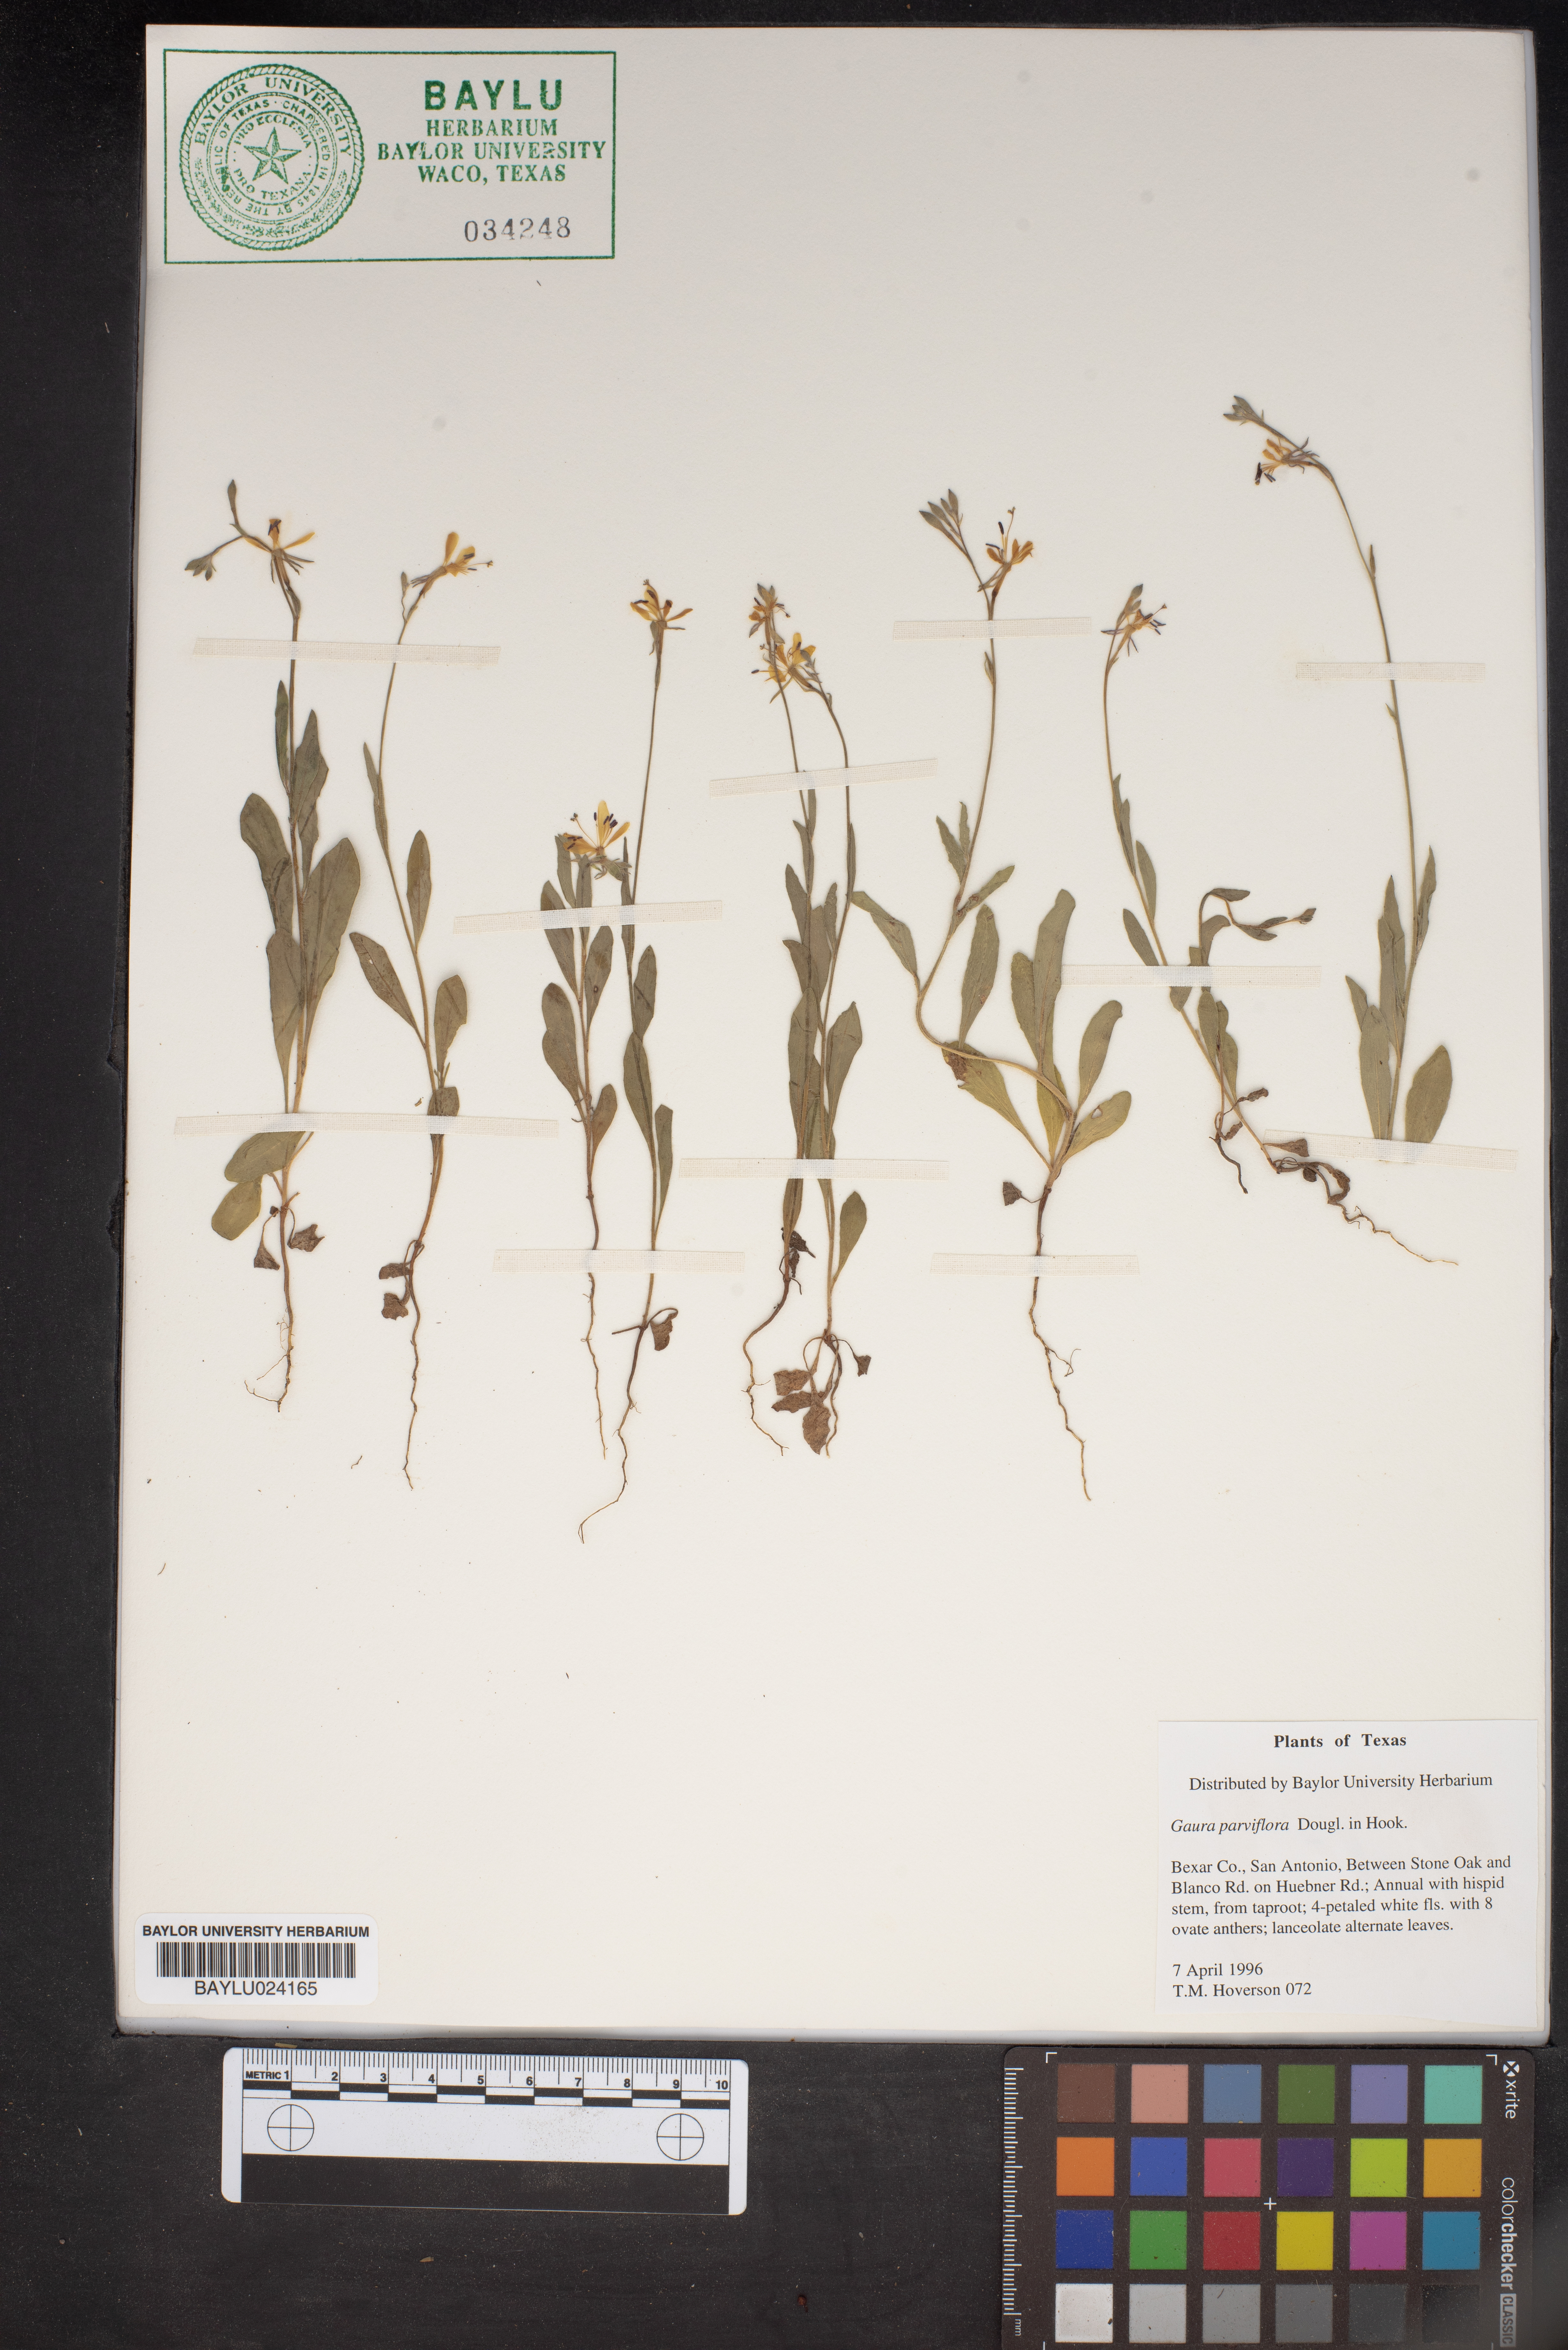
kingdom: Plantae
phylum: Tracheophyta
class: Magnoliopsida
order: Myrtales
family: Onagraceae
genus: Oenothera
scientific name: Oenothera curtiflora
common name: Velvetweed
